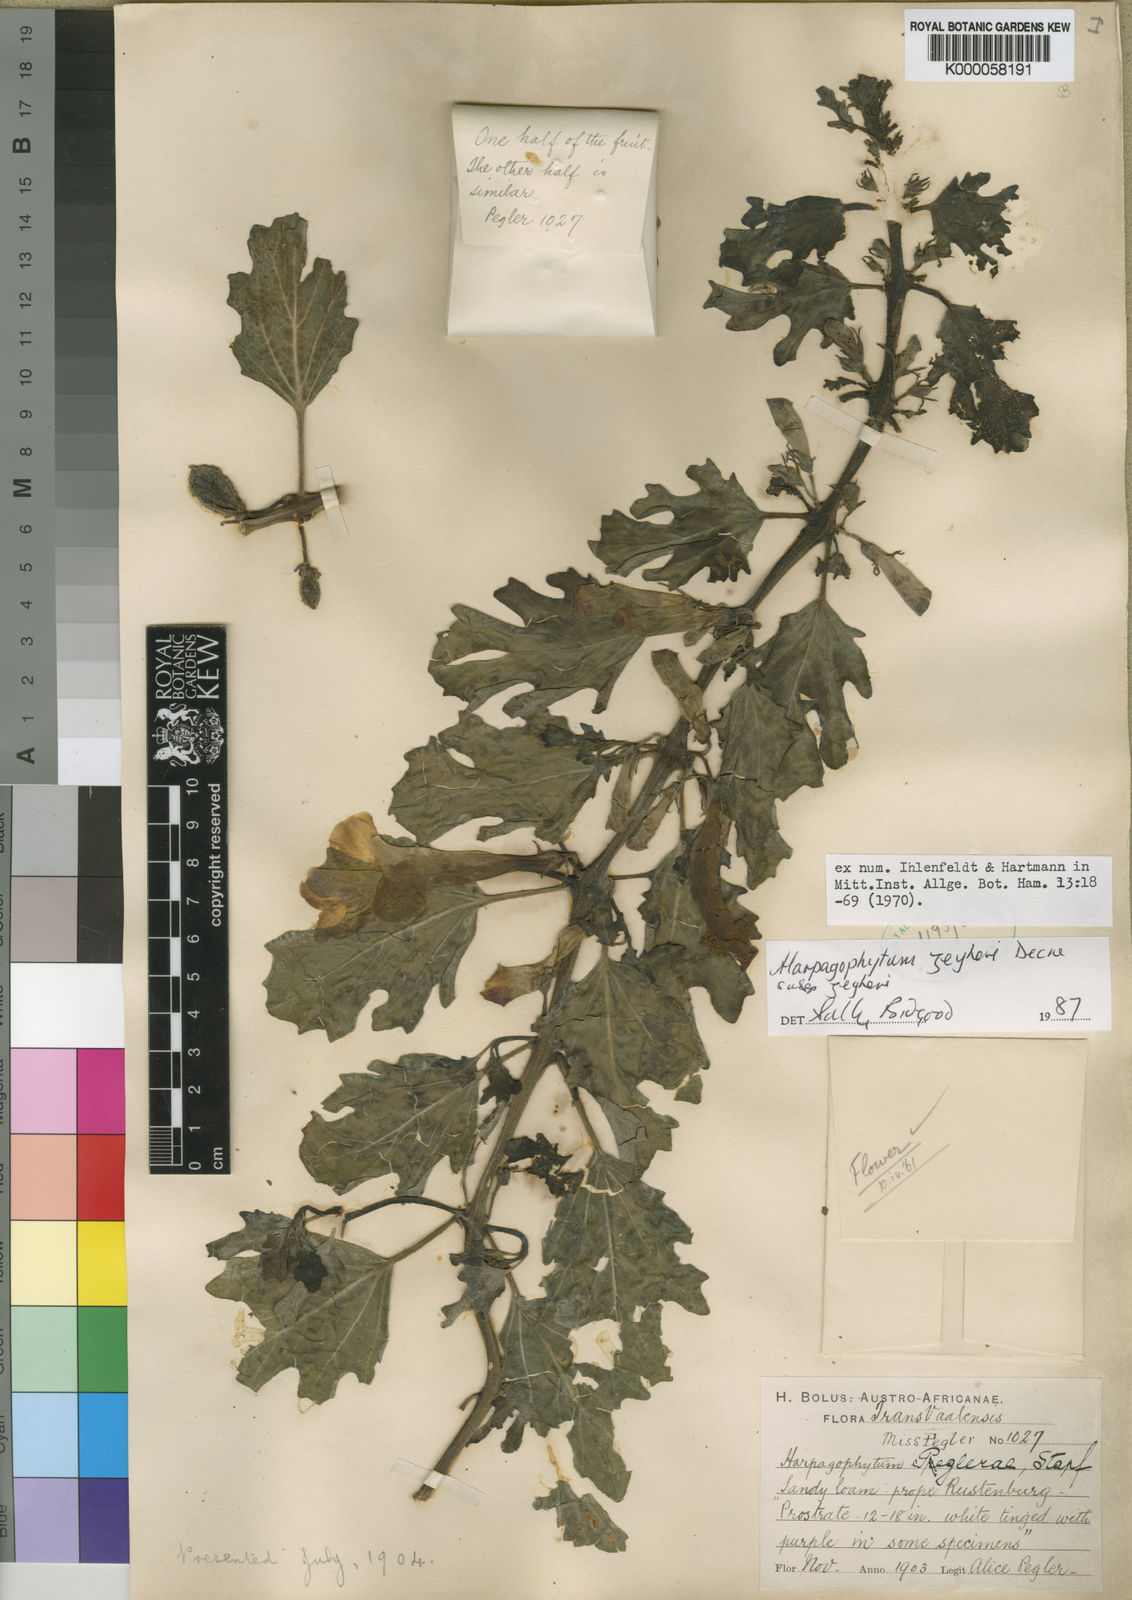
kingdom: Plantae
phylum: Tracheophyta
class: Magnoliopsida
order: Lamiales
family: Pedaliaceae
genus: Harpagophytum
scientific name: Harpagophytum zeyheri
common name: Grappleplant
